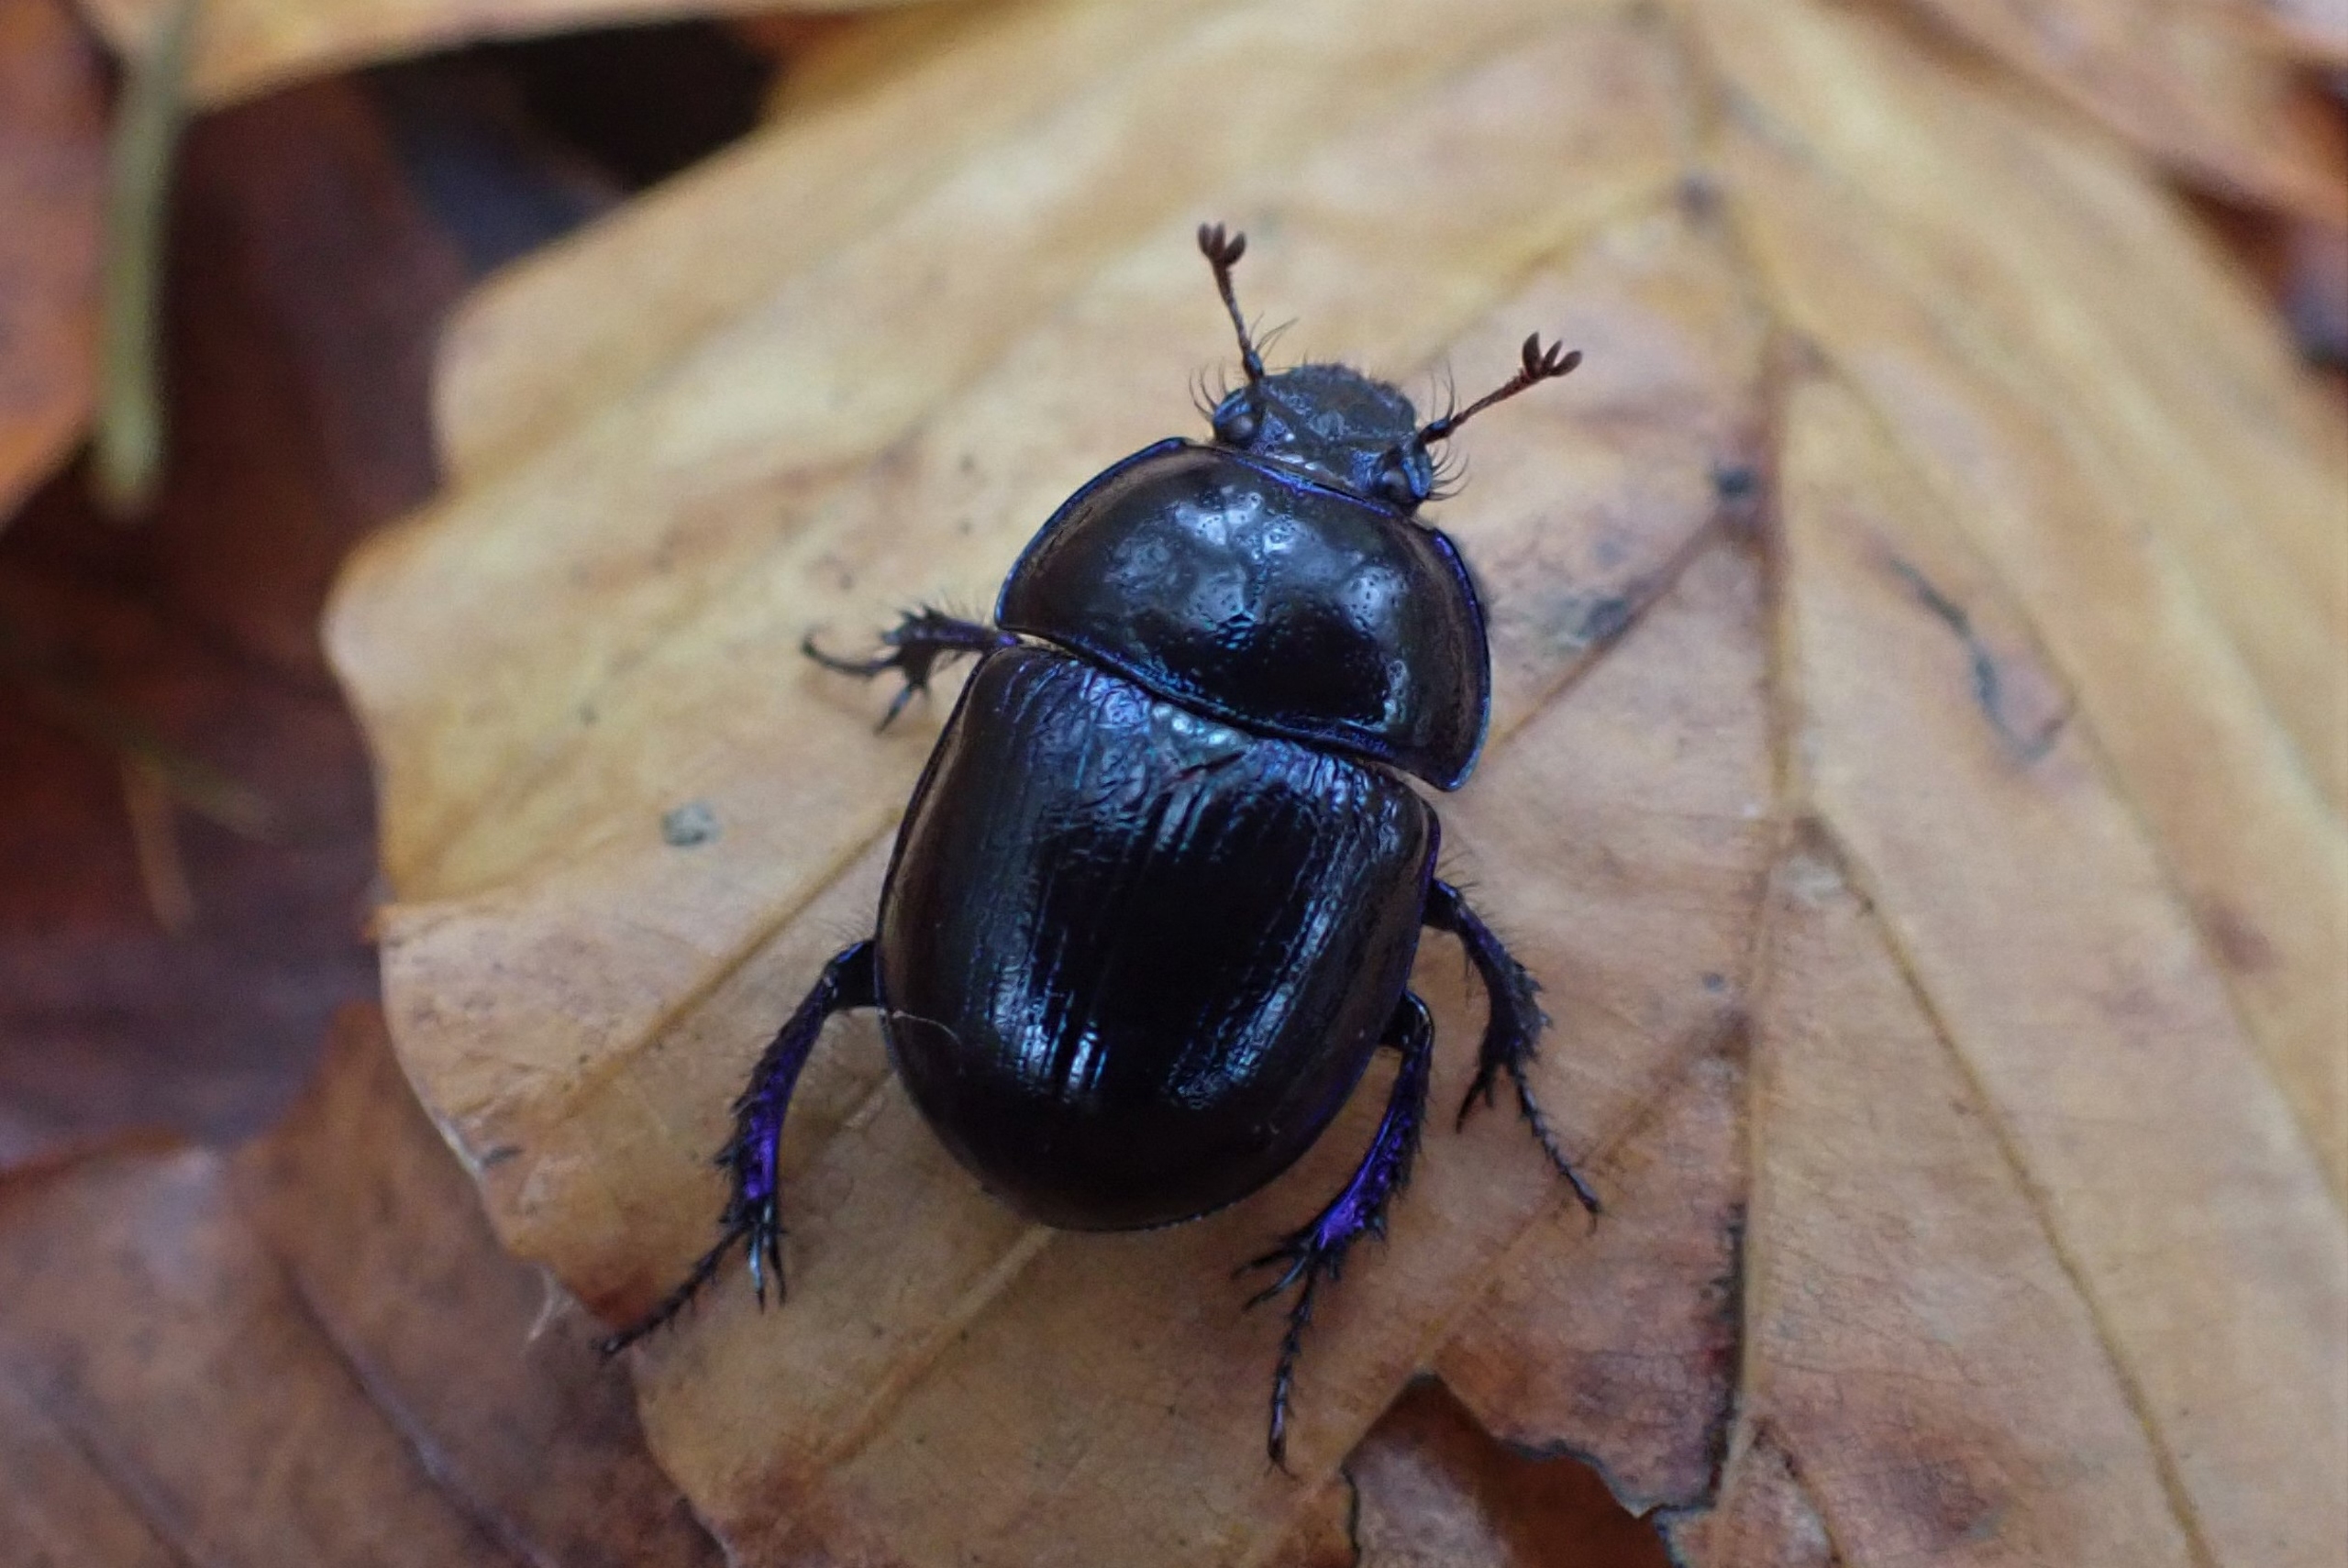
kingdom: Animalia
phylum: Arthropoda
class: Insecta
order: Coleoptera
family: Geotrupidae
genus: Anoplotrupes
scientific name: Anoplotrupes stercorosus
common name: Skovskarnbasse
